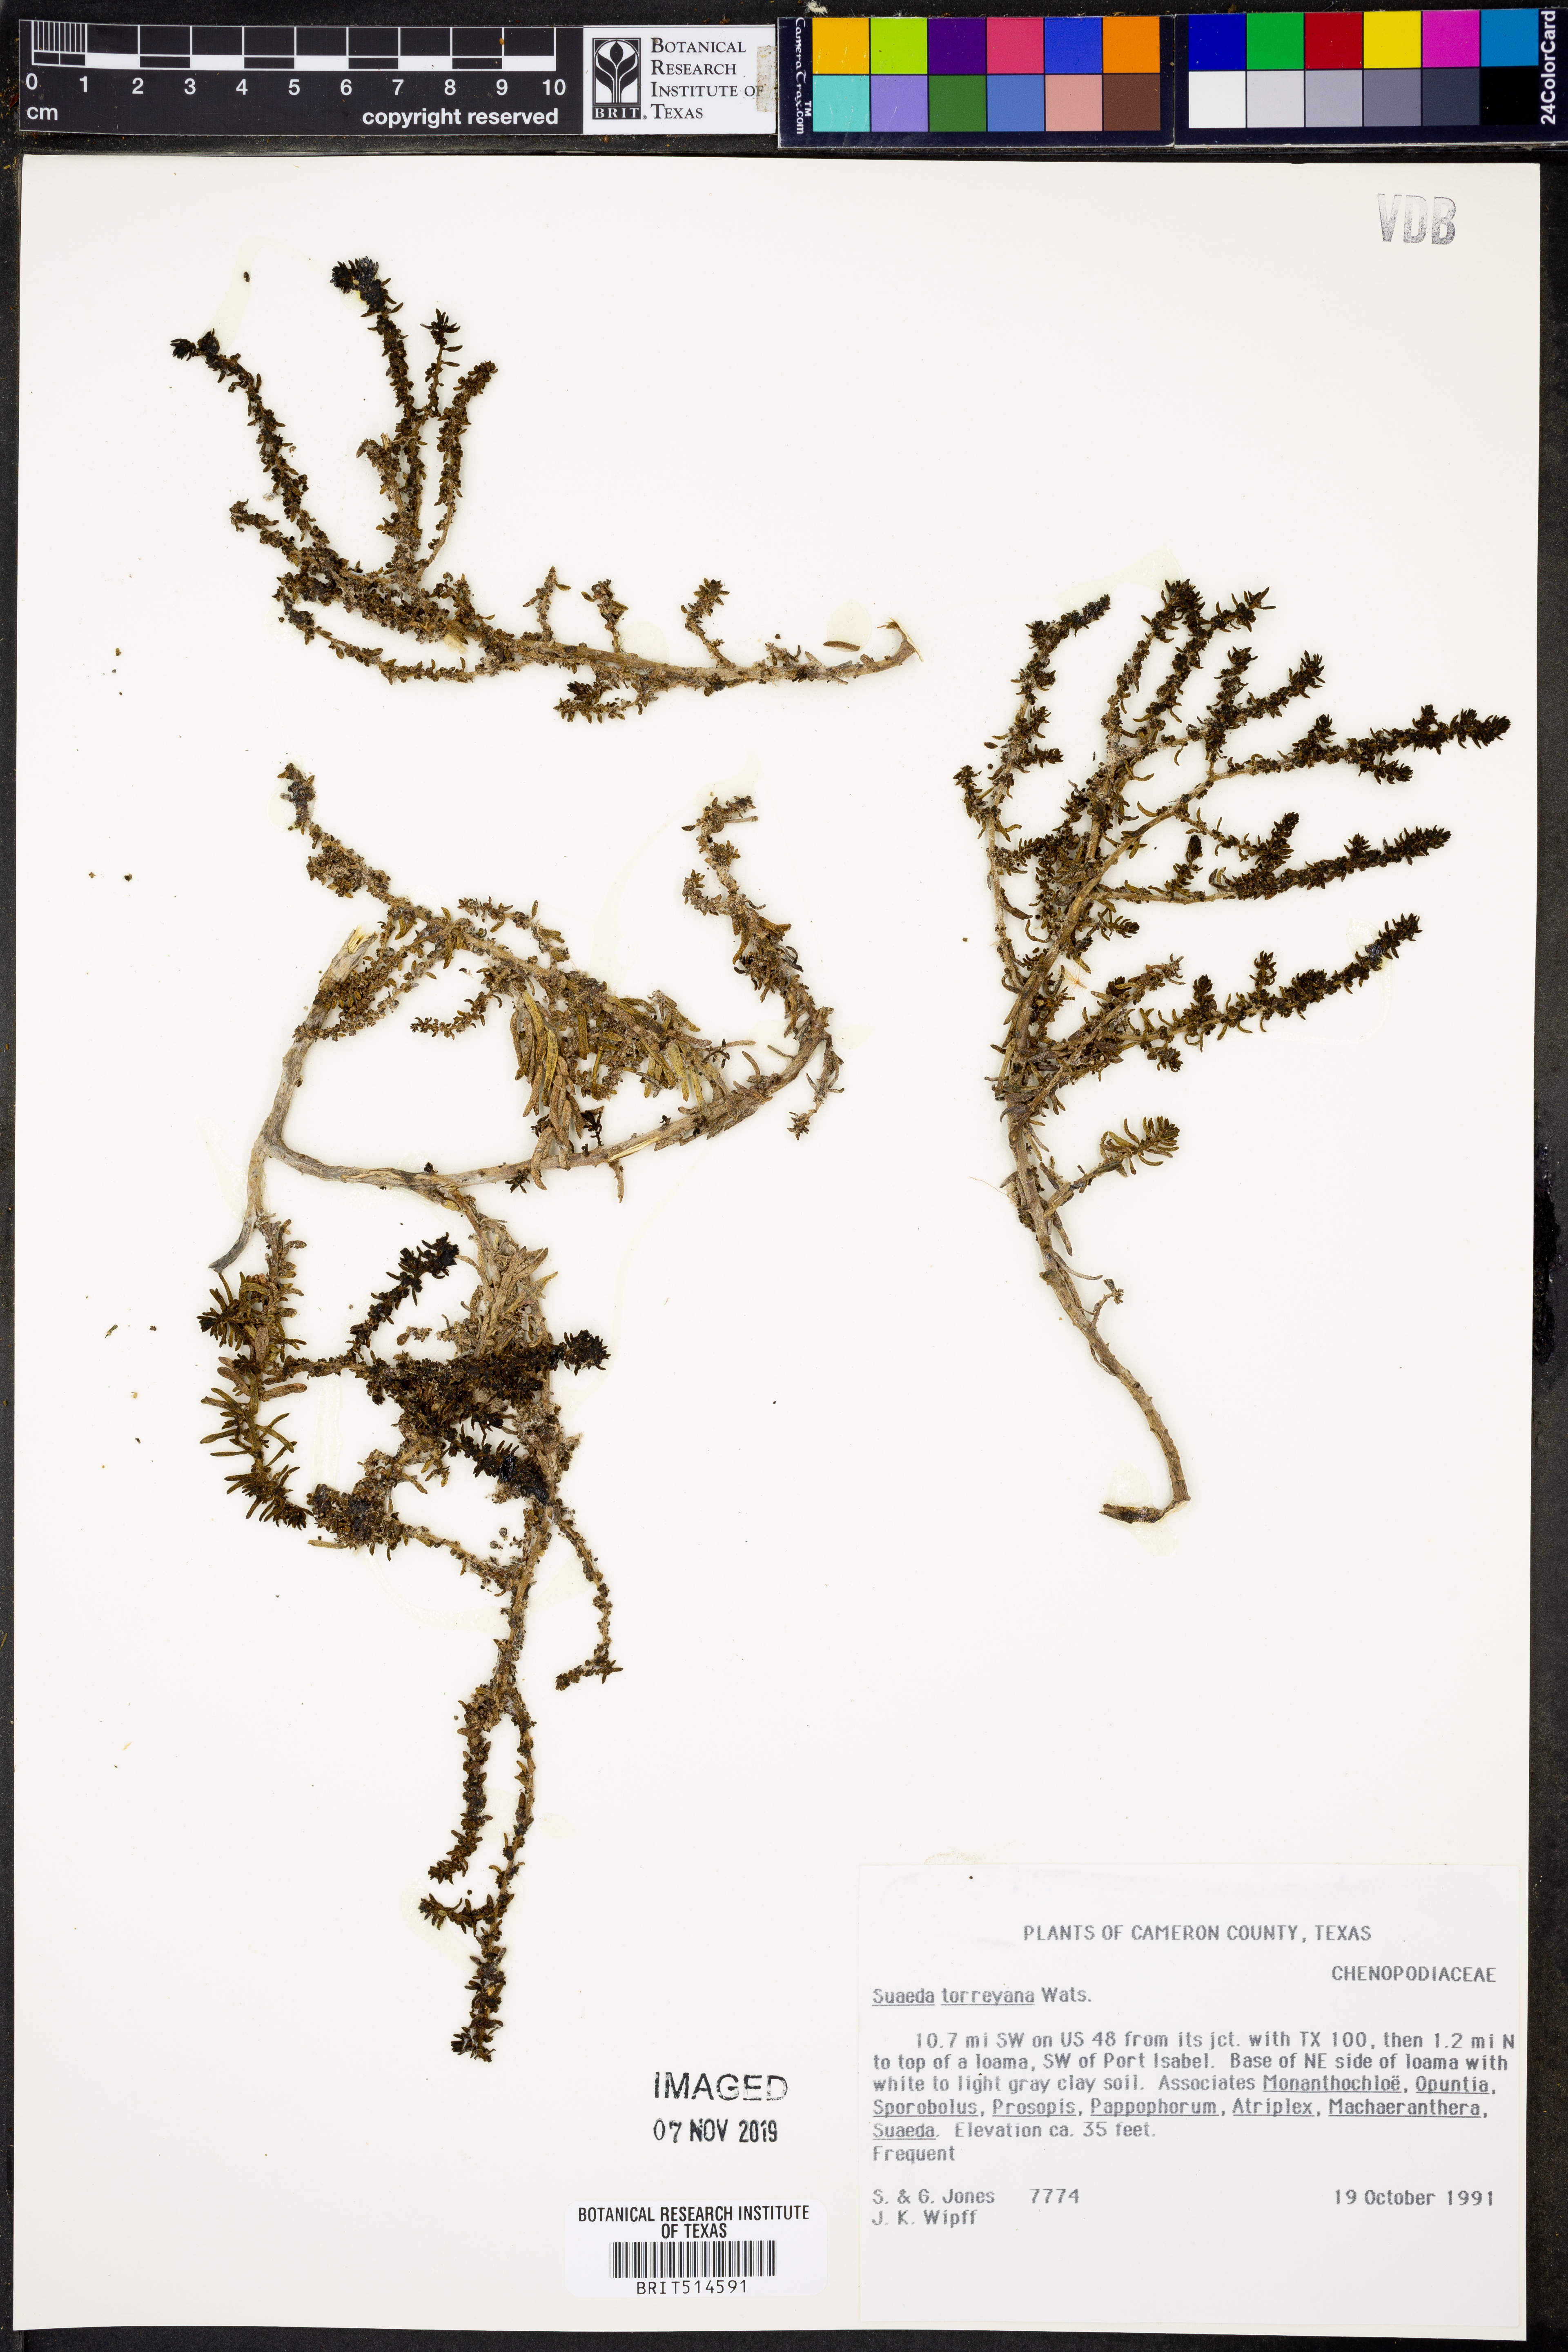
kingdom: Plantae
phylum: Tracheophyta
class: Magnoliopsida
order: Caryophyllales
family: Amaranthaceae
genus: Suaeda
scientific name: Suaeda nigra
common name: Bush seepweed
